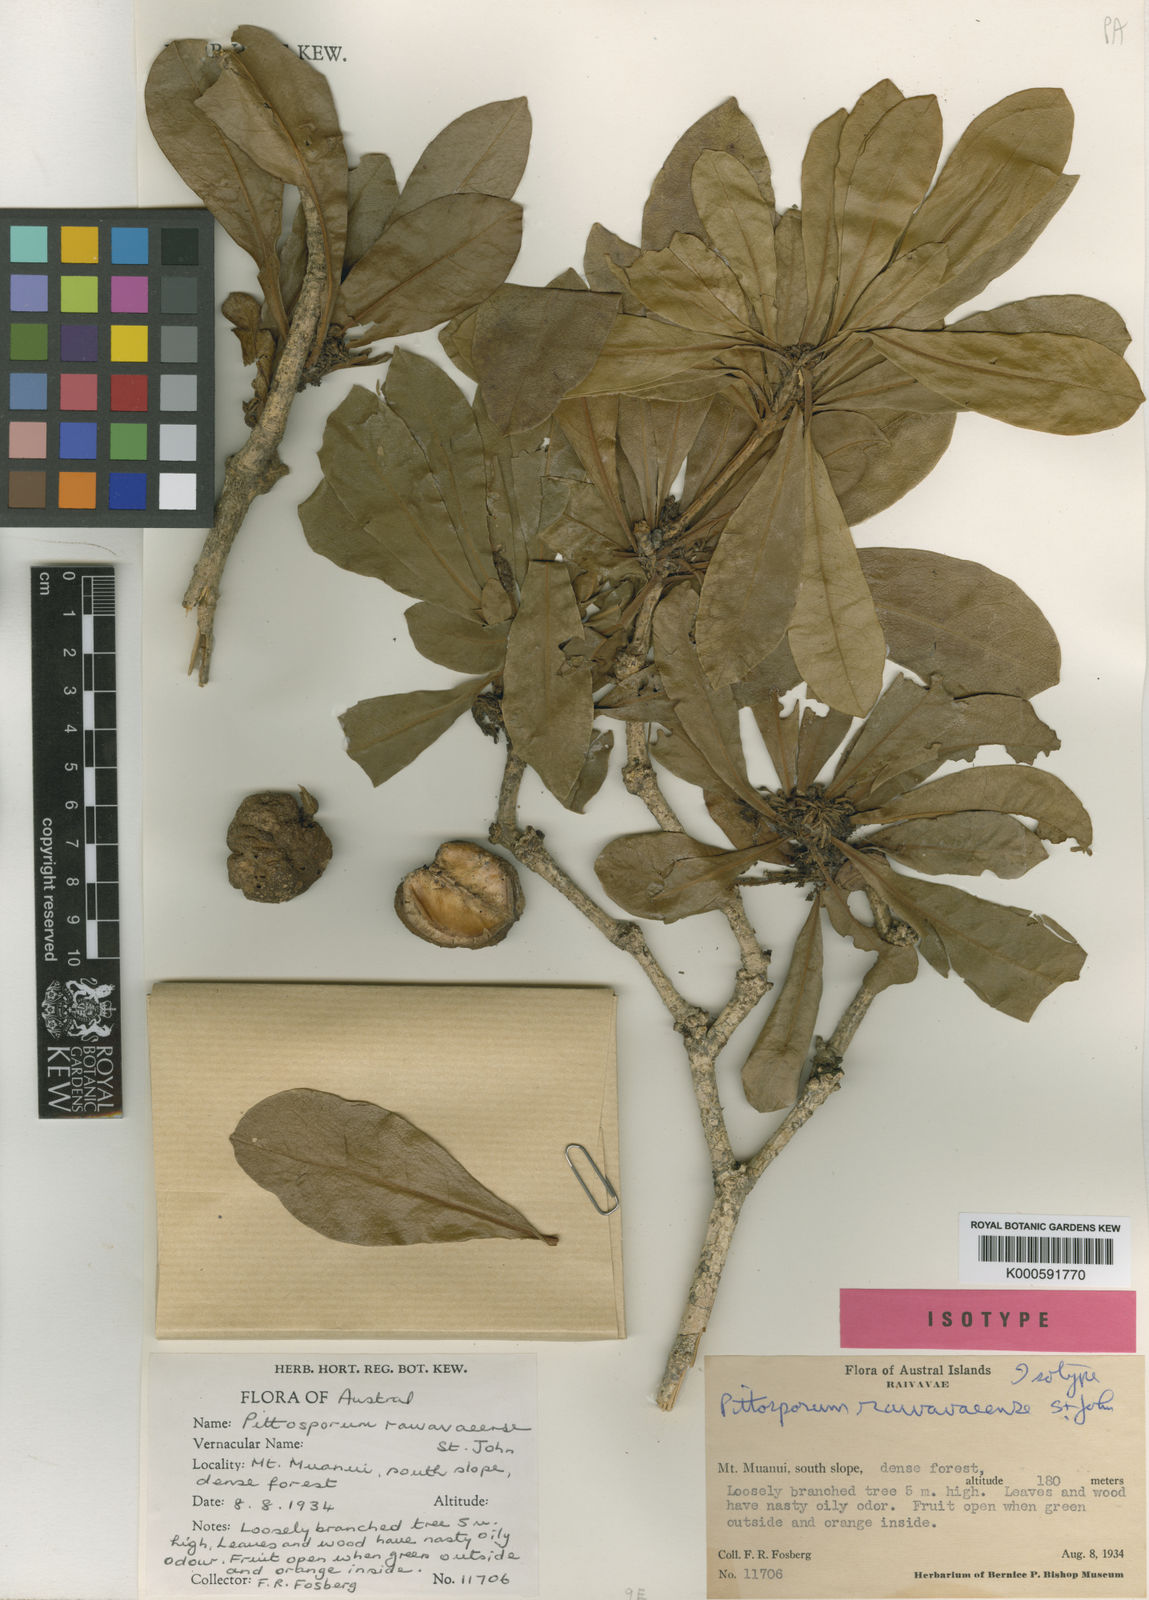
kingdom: Plantae
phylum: Tracheophyta
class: Magnoliopsida
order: Apiales
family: Pittosporaceae
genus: Pittosporum
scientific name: Pittosporum raivavaeense
